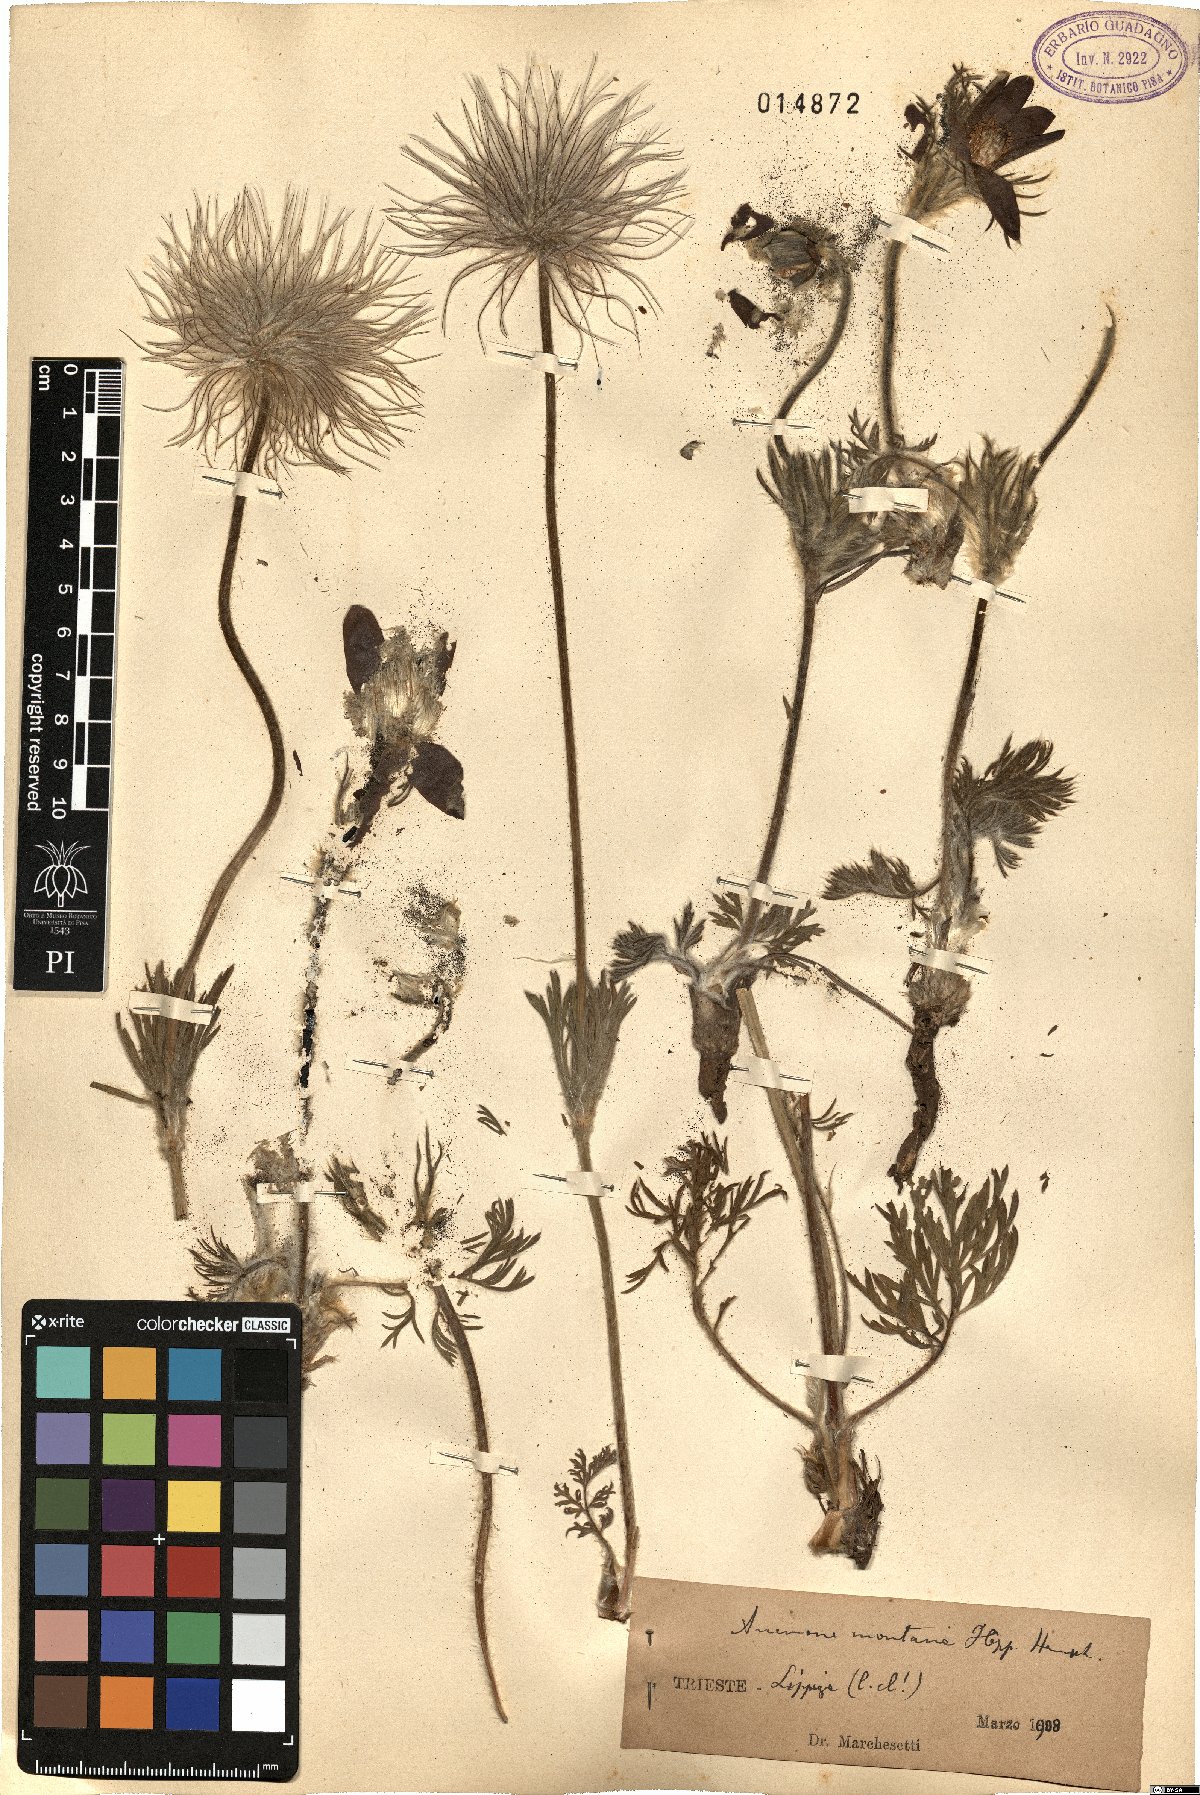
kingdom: Plantae
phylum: Tracheophyta
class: Magnoliopsida
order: Ranunculales
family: Ranunculaceae
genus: Pulsatilla
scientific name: Pulsatilla montana
